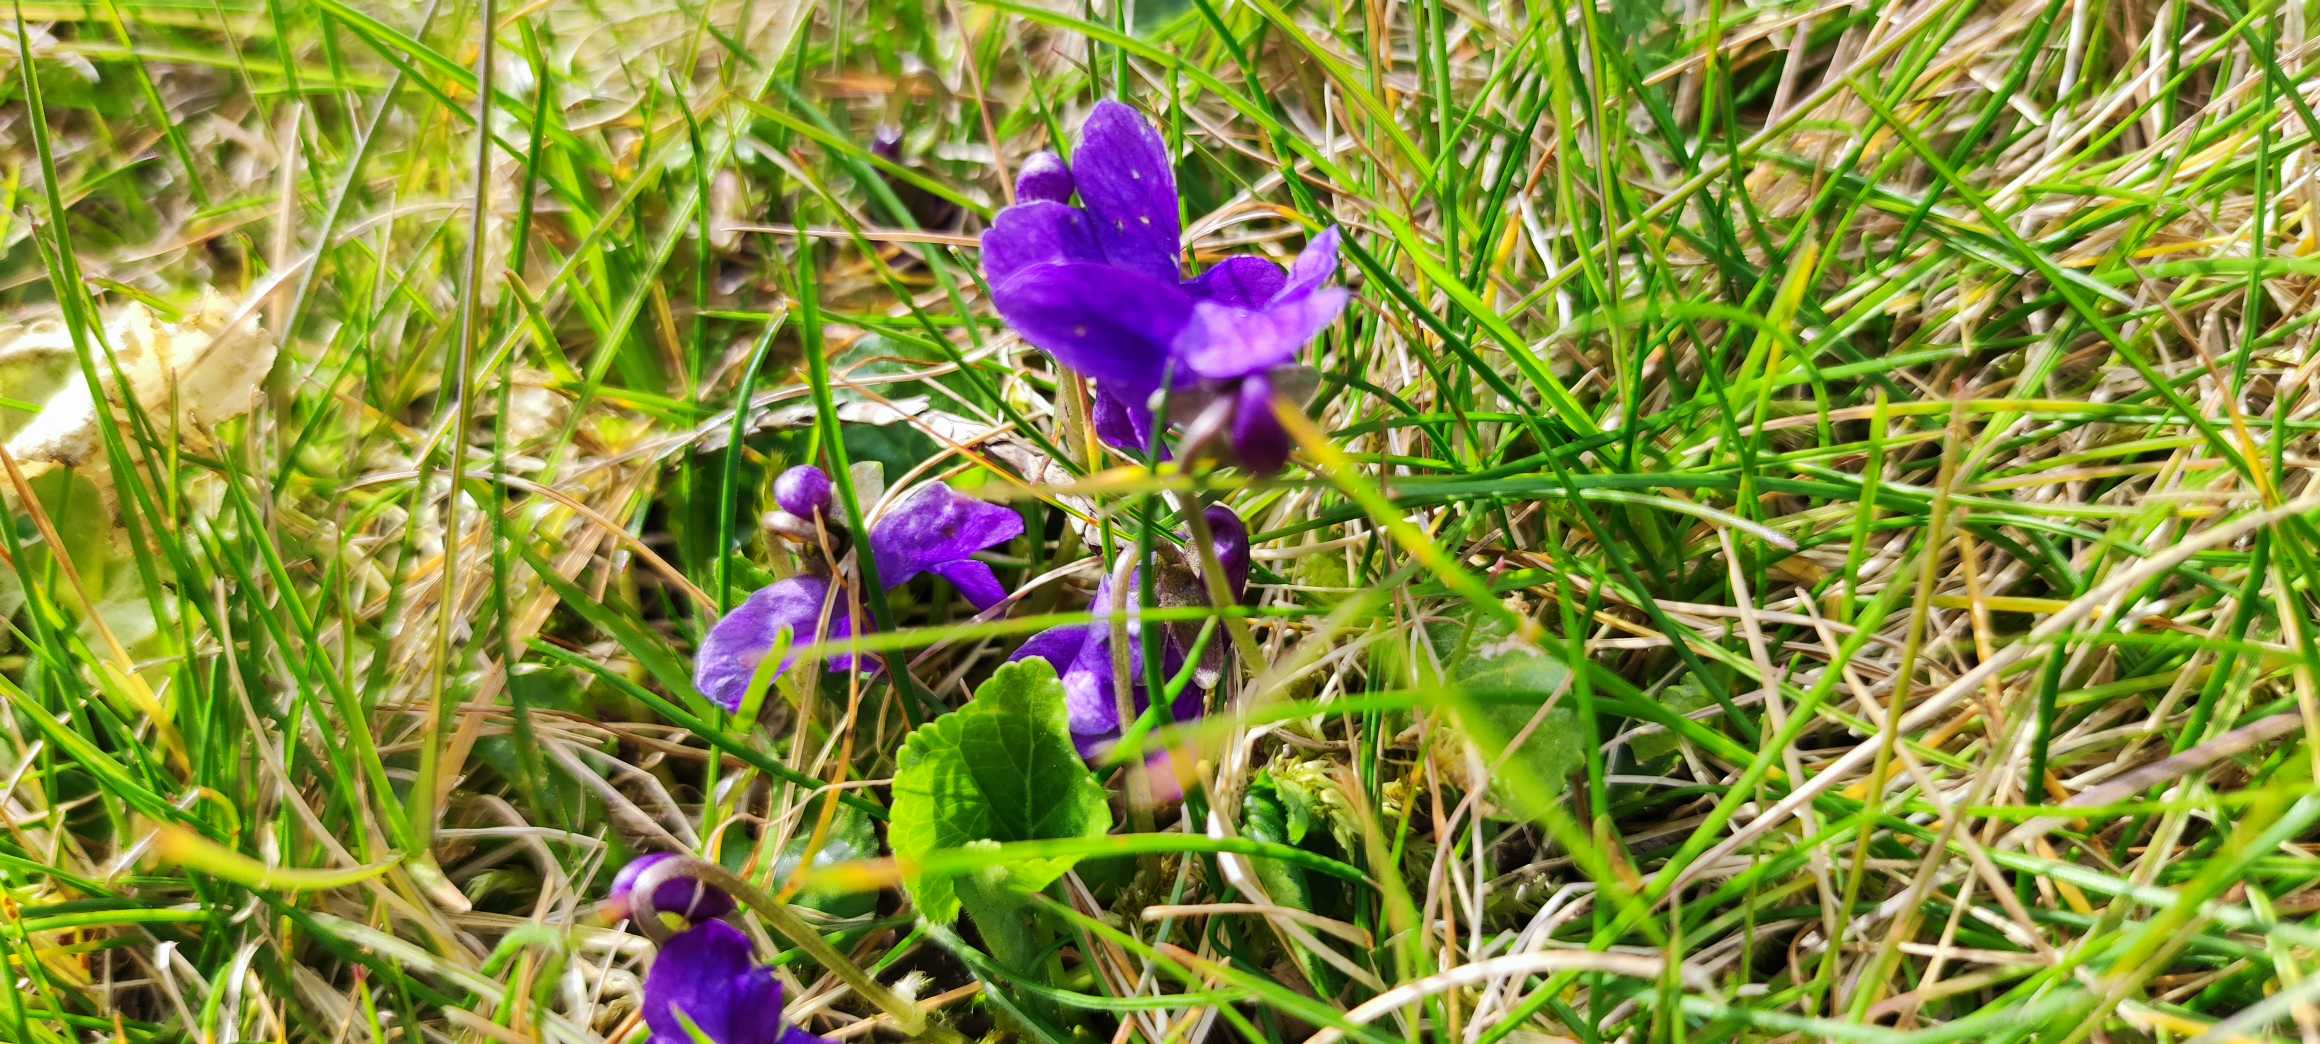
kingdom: Plantae
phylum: Tracheophyta
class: Magnoliopsida
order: Malpighiales
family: Violaceae
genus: Viola
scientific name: Viola odorata
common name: Marts-viol
